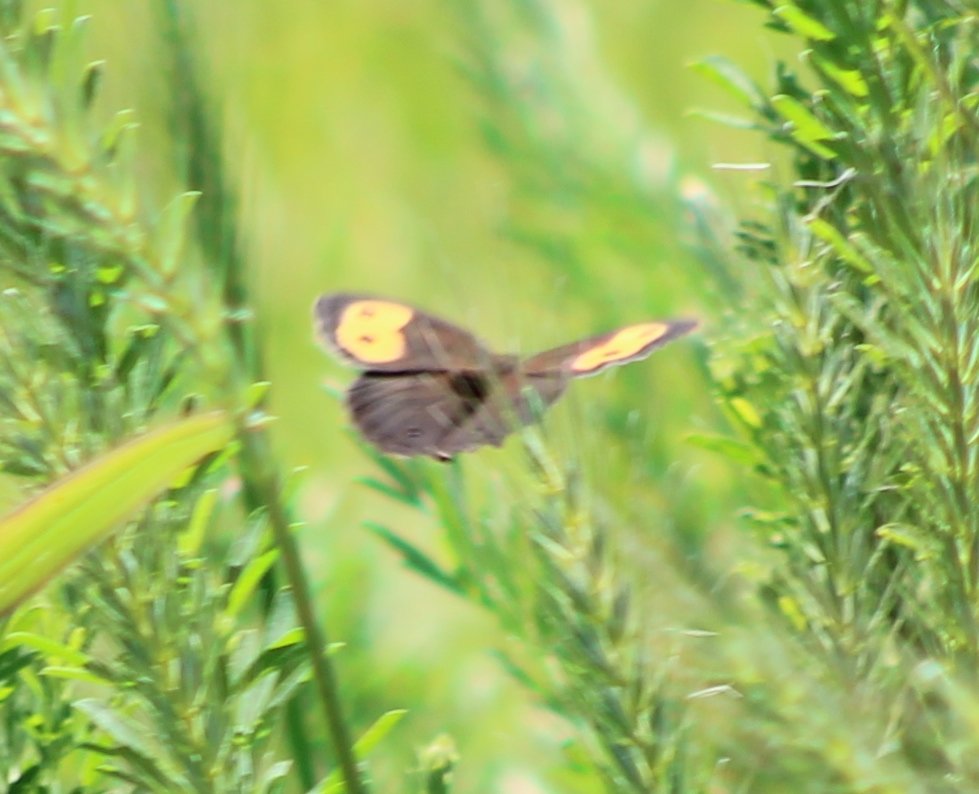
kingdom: Animalia
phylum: Arthropoda
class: Insecta
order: Lepidoptera
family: Nymphalidae
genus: Cercyonis
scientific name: Cercyonis pegala
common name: Common Wood-Nymph
